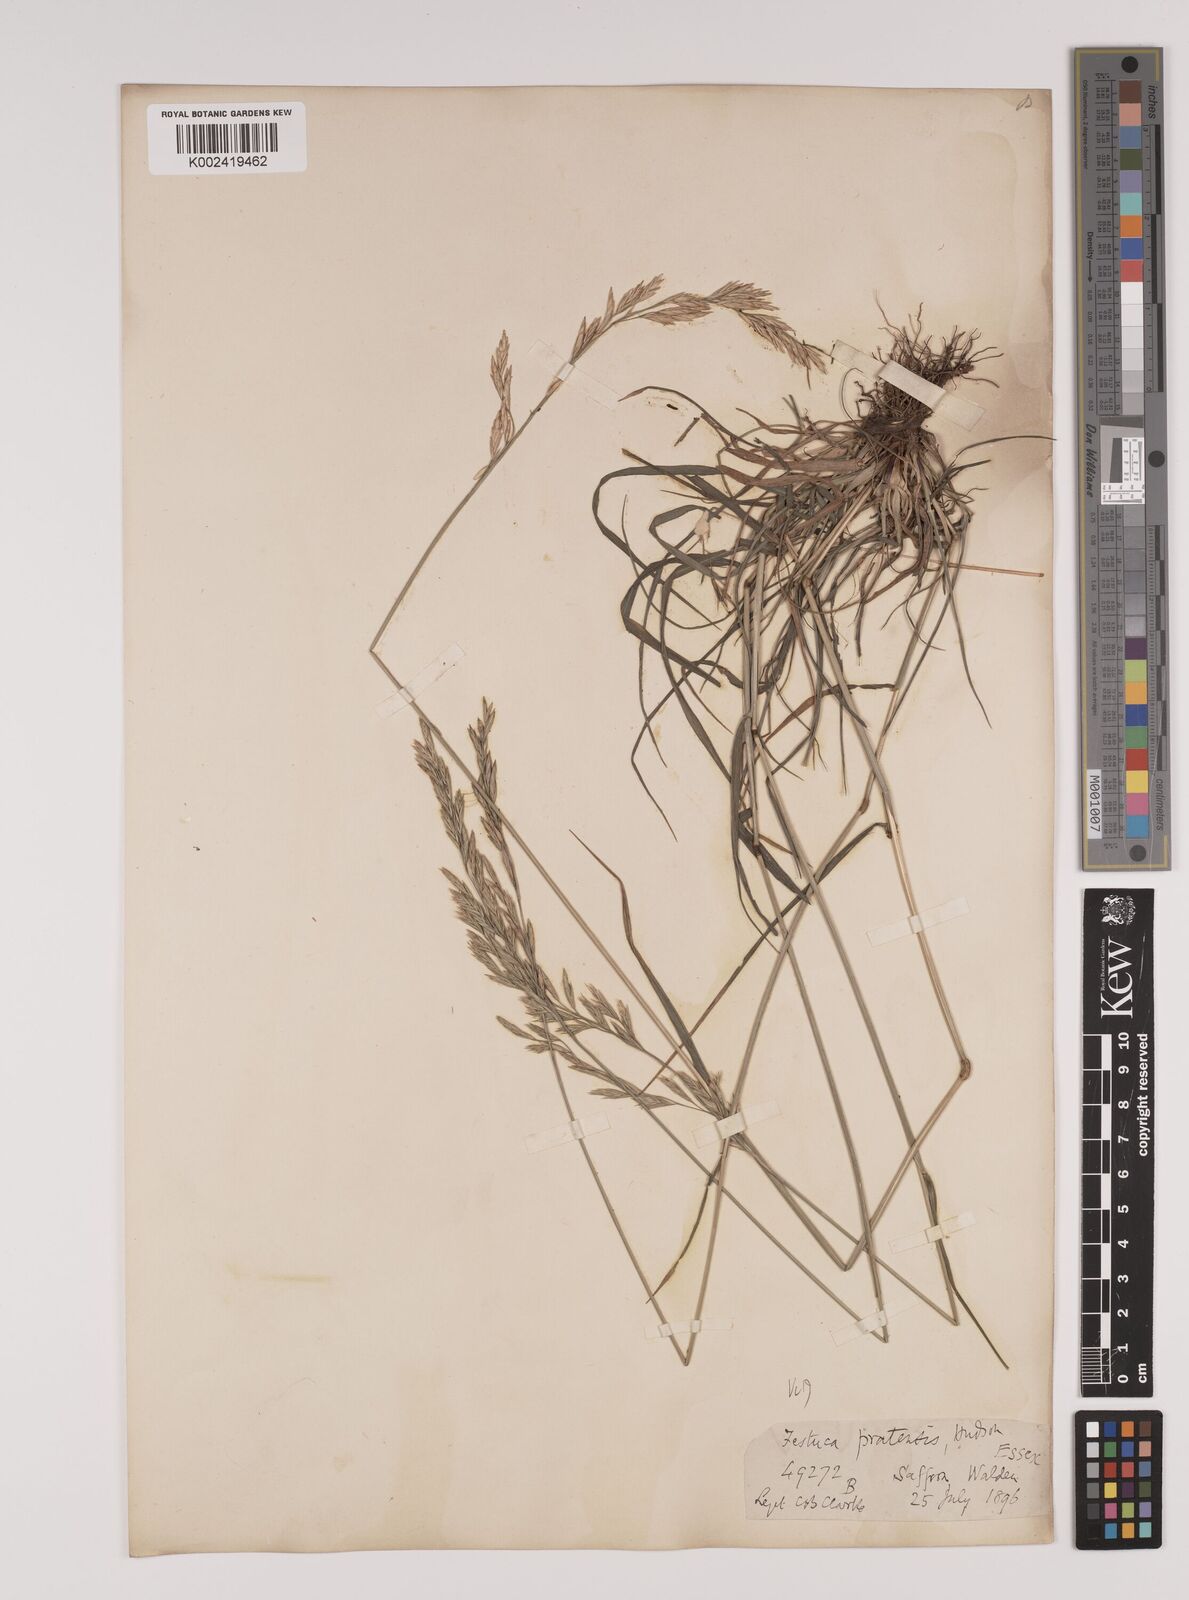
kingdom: Plantae
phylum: Tracheophyta
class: Liliopsida
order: Poales
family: Poaceae
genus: Lolium
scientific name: Lolium pratense
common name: Dover grass
